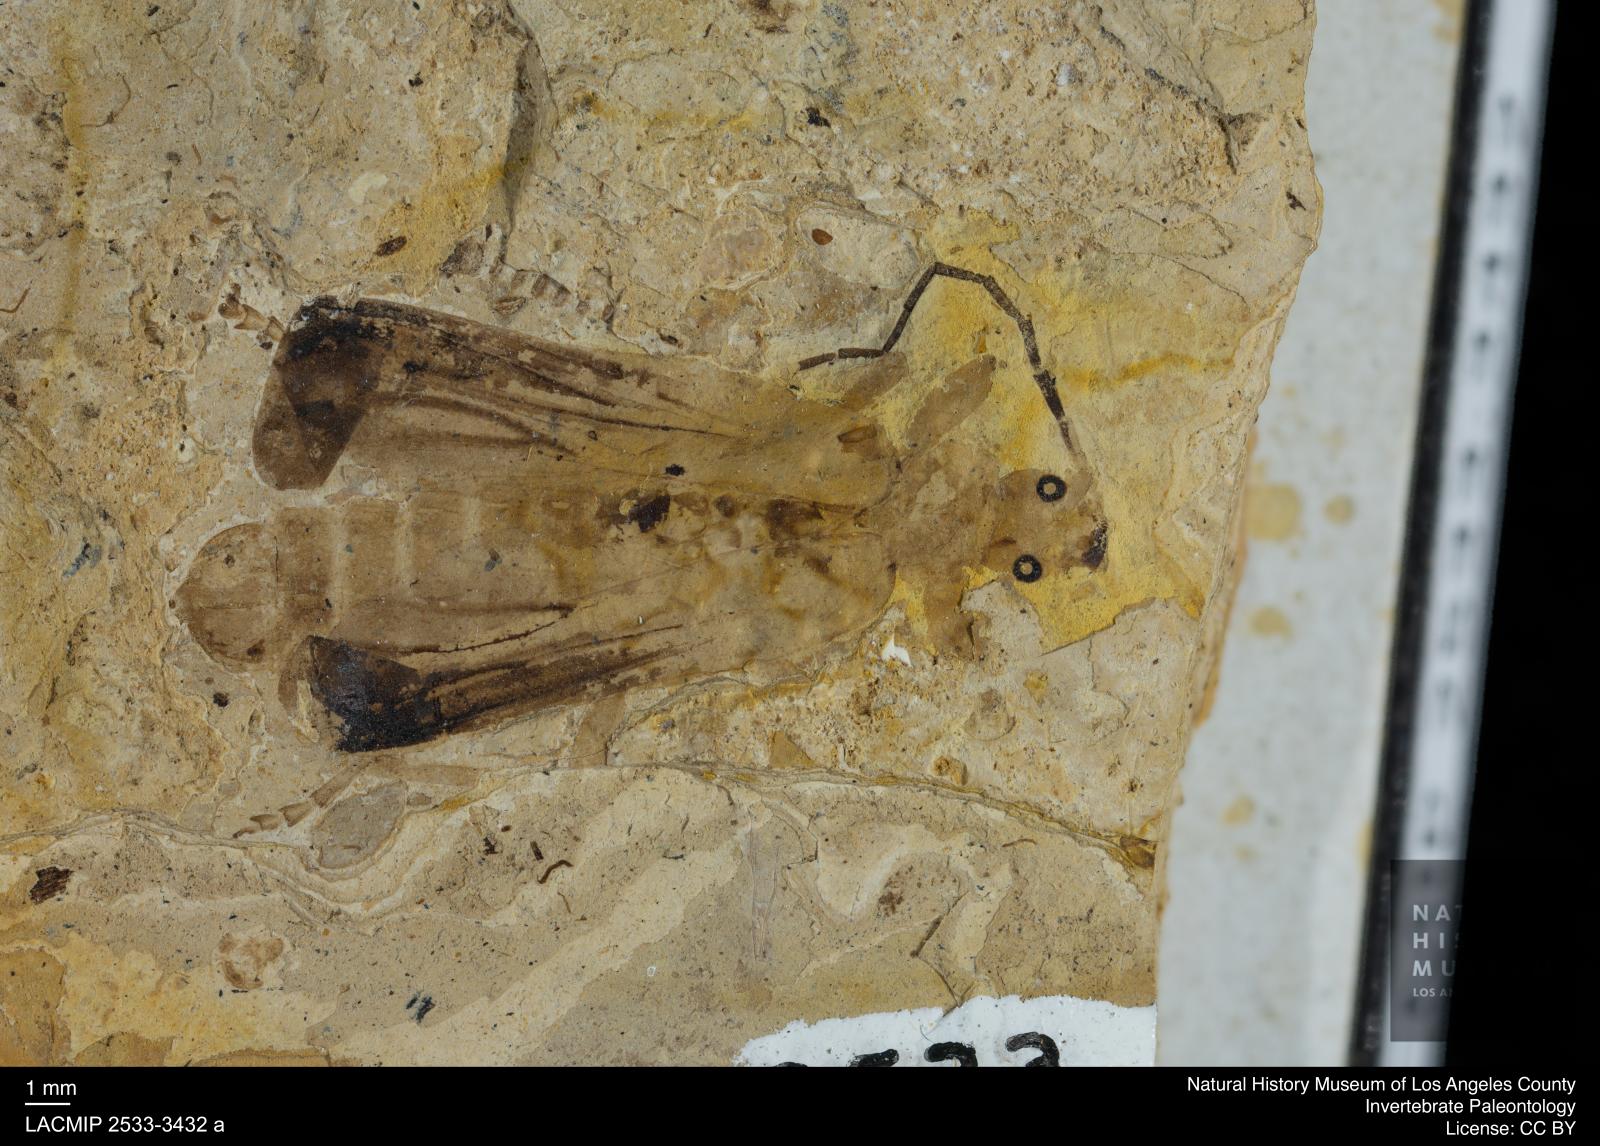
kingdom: Animalia
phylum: Arthropoda
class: Insecta
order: Coleoptera
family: Cantharidae
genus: Cantharis
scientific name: Cantharis lidiae
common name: Solider beetle
